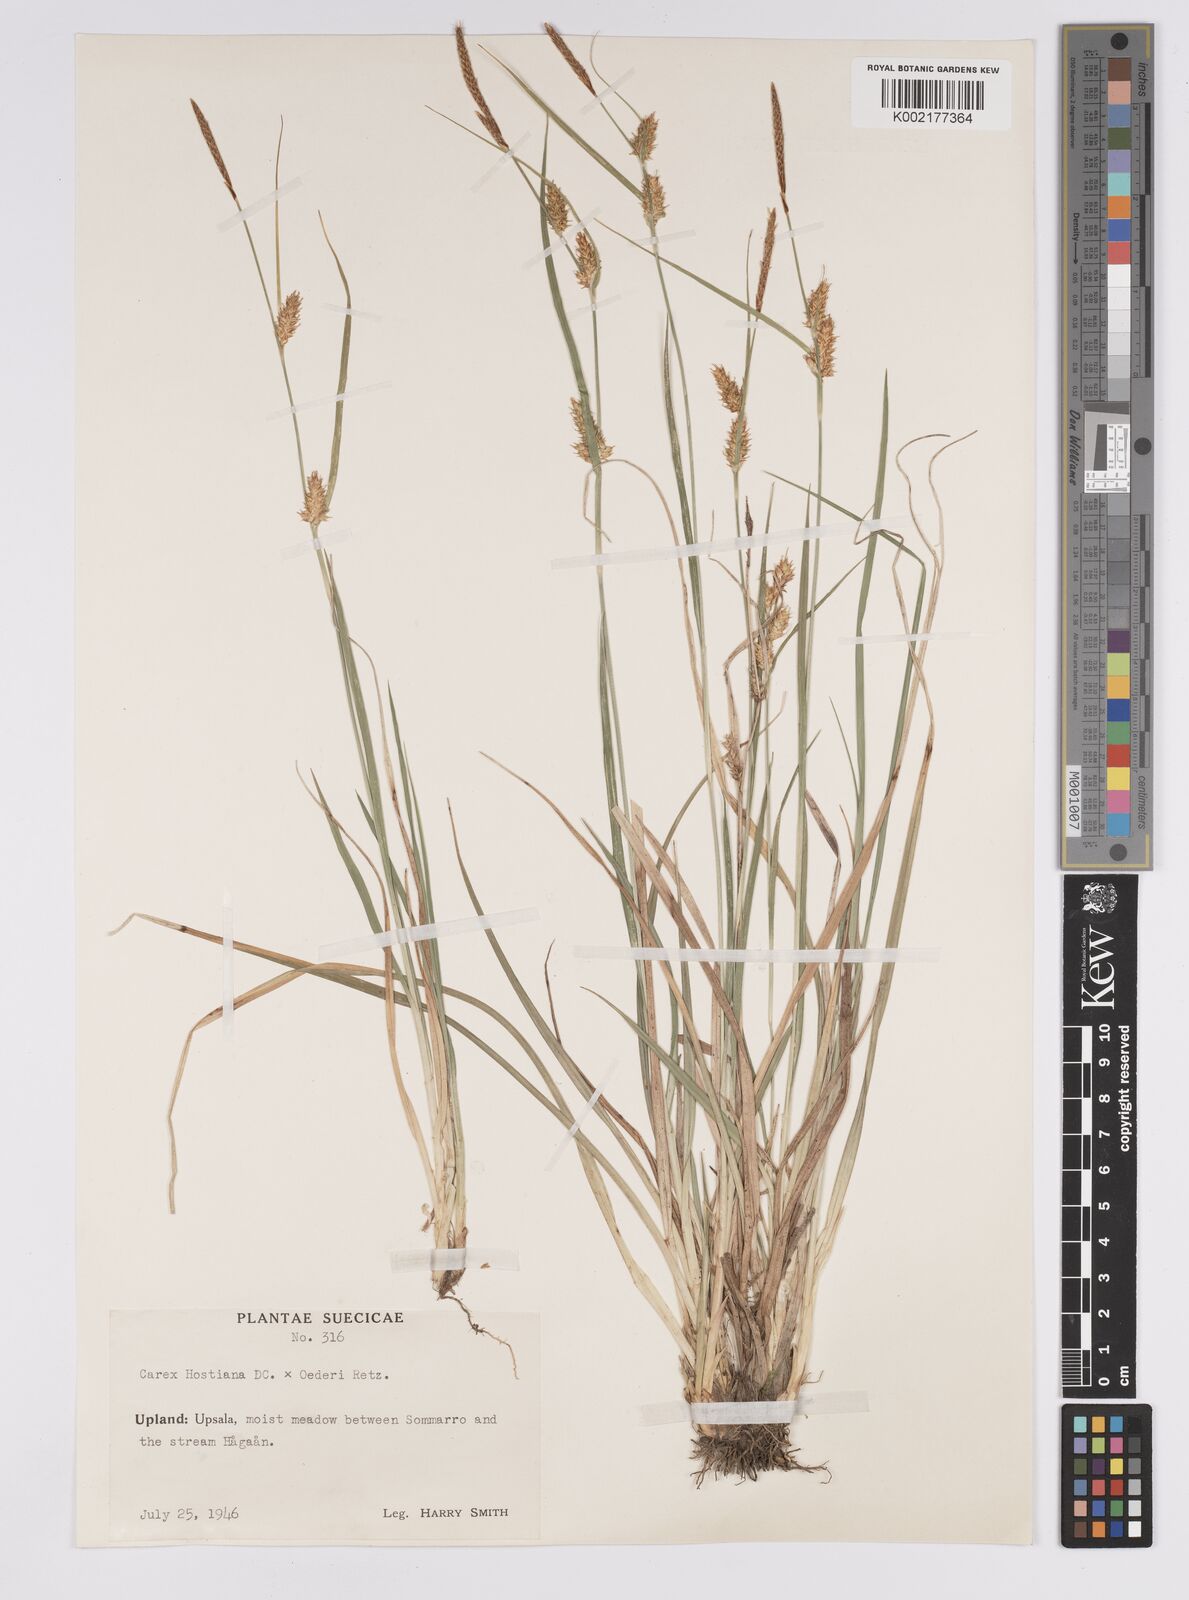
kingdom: Plantae
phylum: Tracheophyta
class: Liliopsida
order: Poales
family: Cyperaceae
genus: Carex
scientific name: Carex hostiana
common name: Tawny sedge
